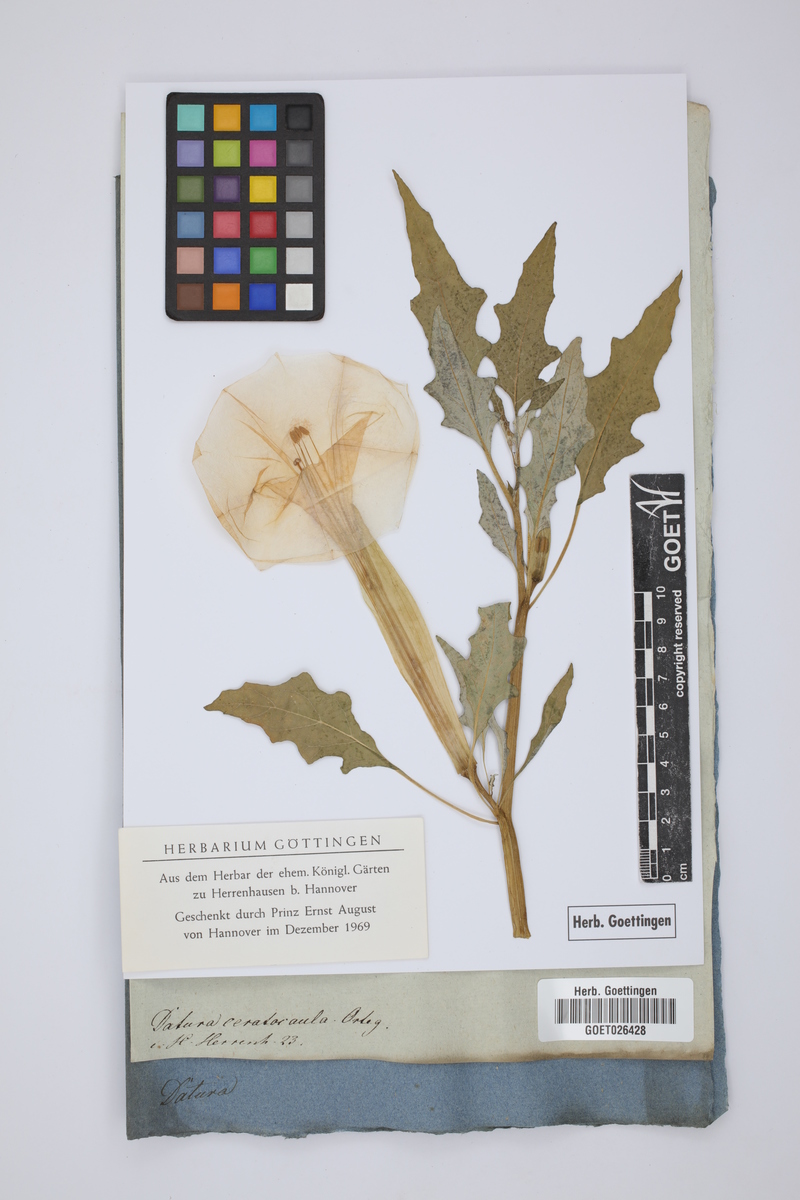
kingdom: Plantae
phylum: Tracheophyta
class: Magnoliopsida
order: Solanales
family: Solanaceae
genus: Datura
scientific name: Datura ceratocaula
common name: Latin thorn-apple
